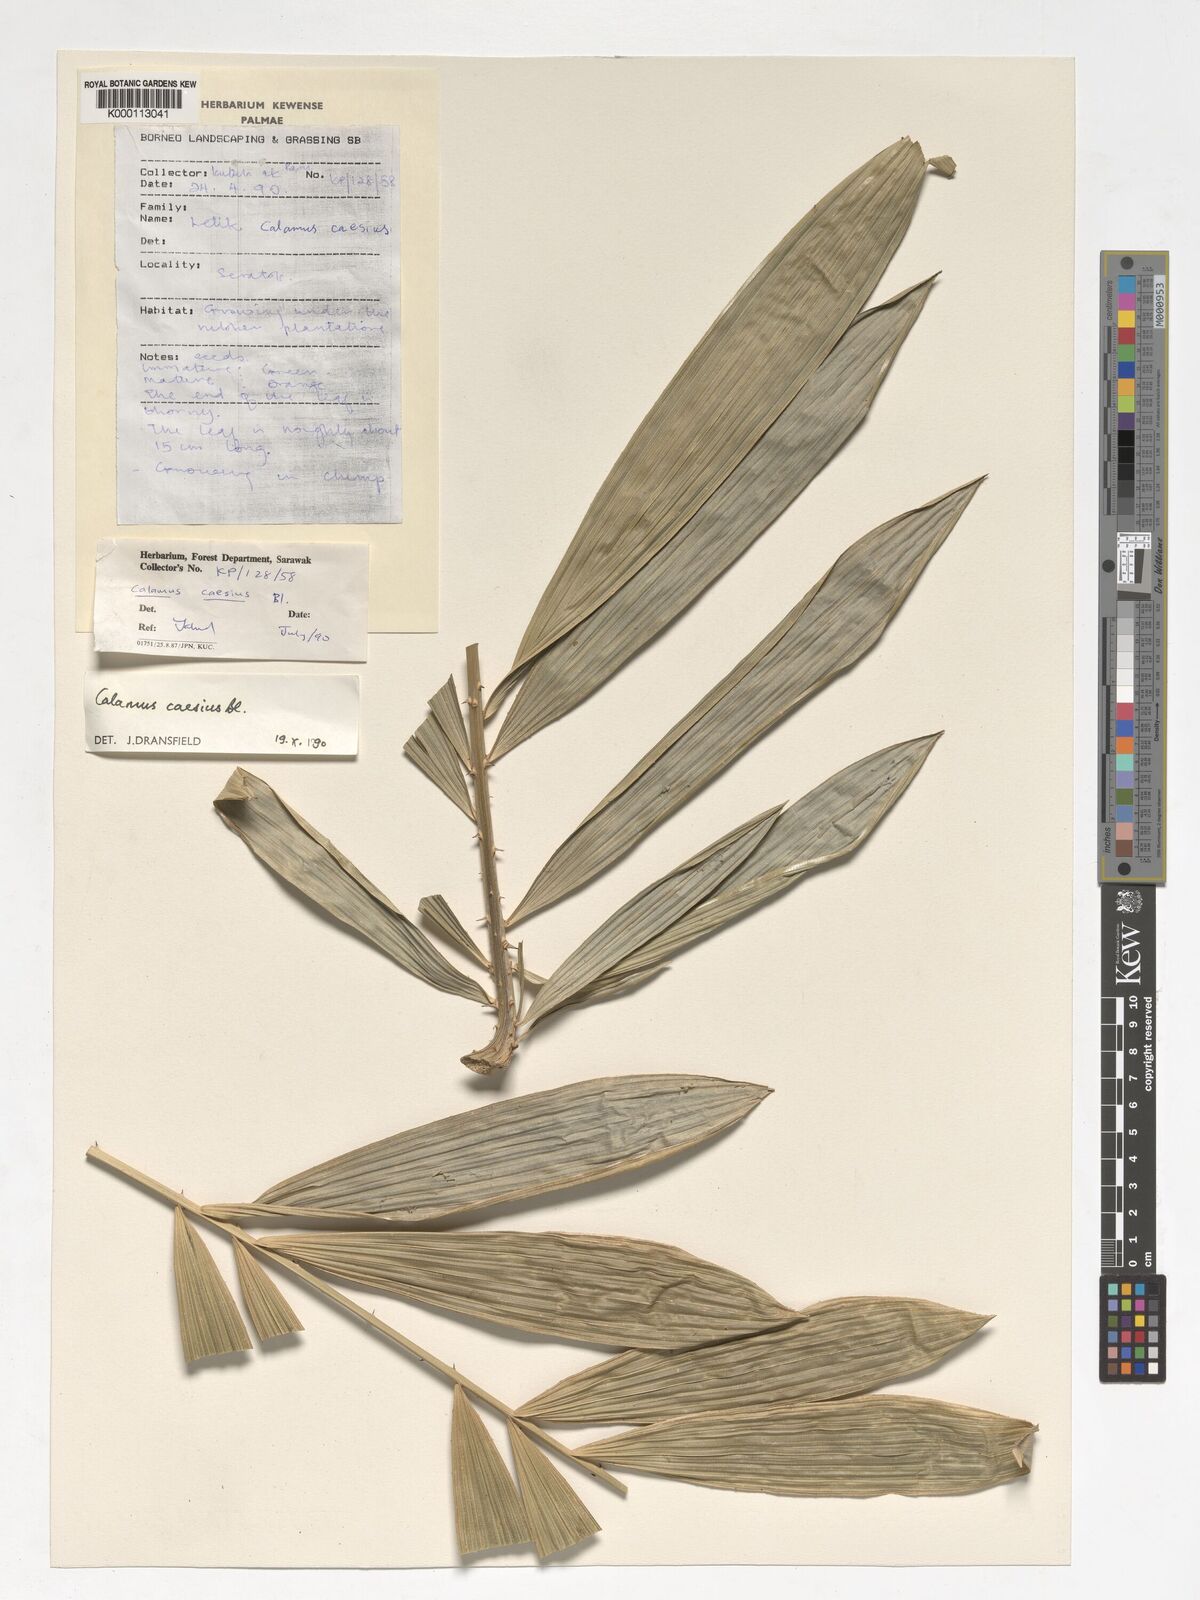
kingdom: Plantae
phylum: Tracheophyta
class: Liliopsida
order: Arecales
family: Arecaceae
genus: Calamus
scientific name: Calamus caesius
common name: Rattan palm
